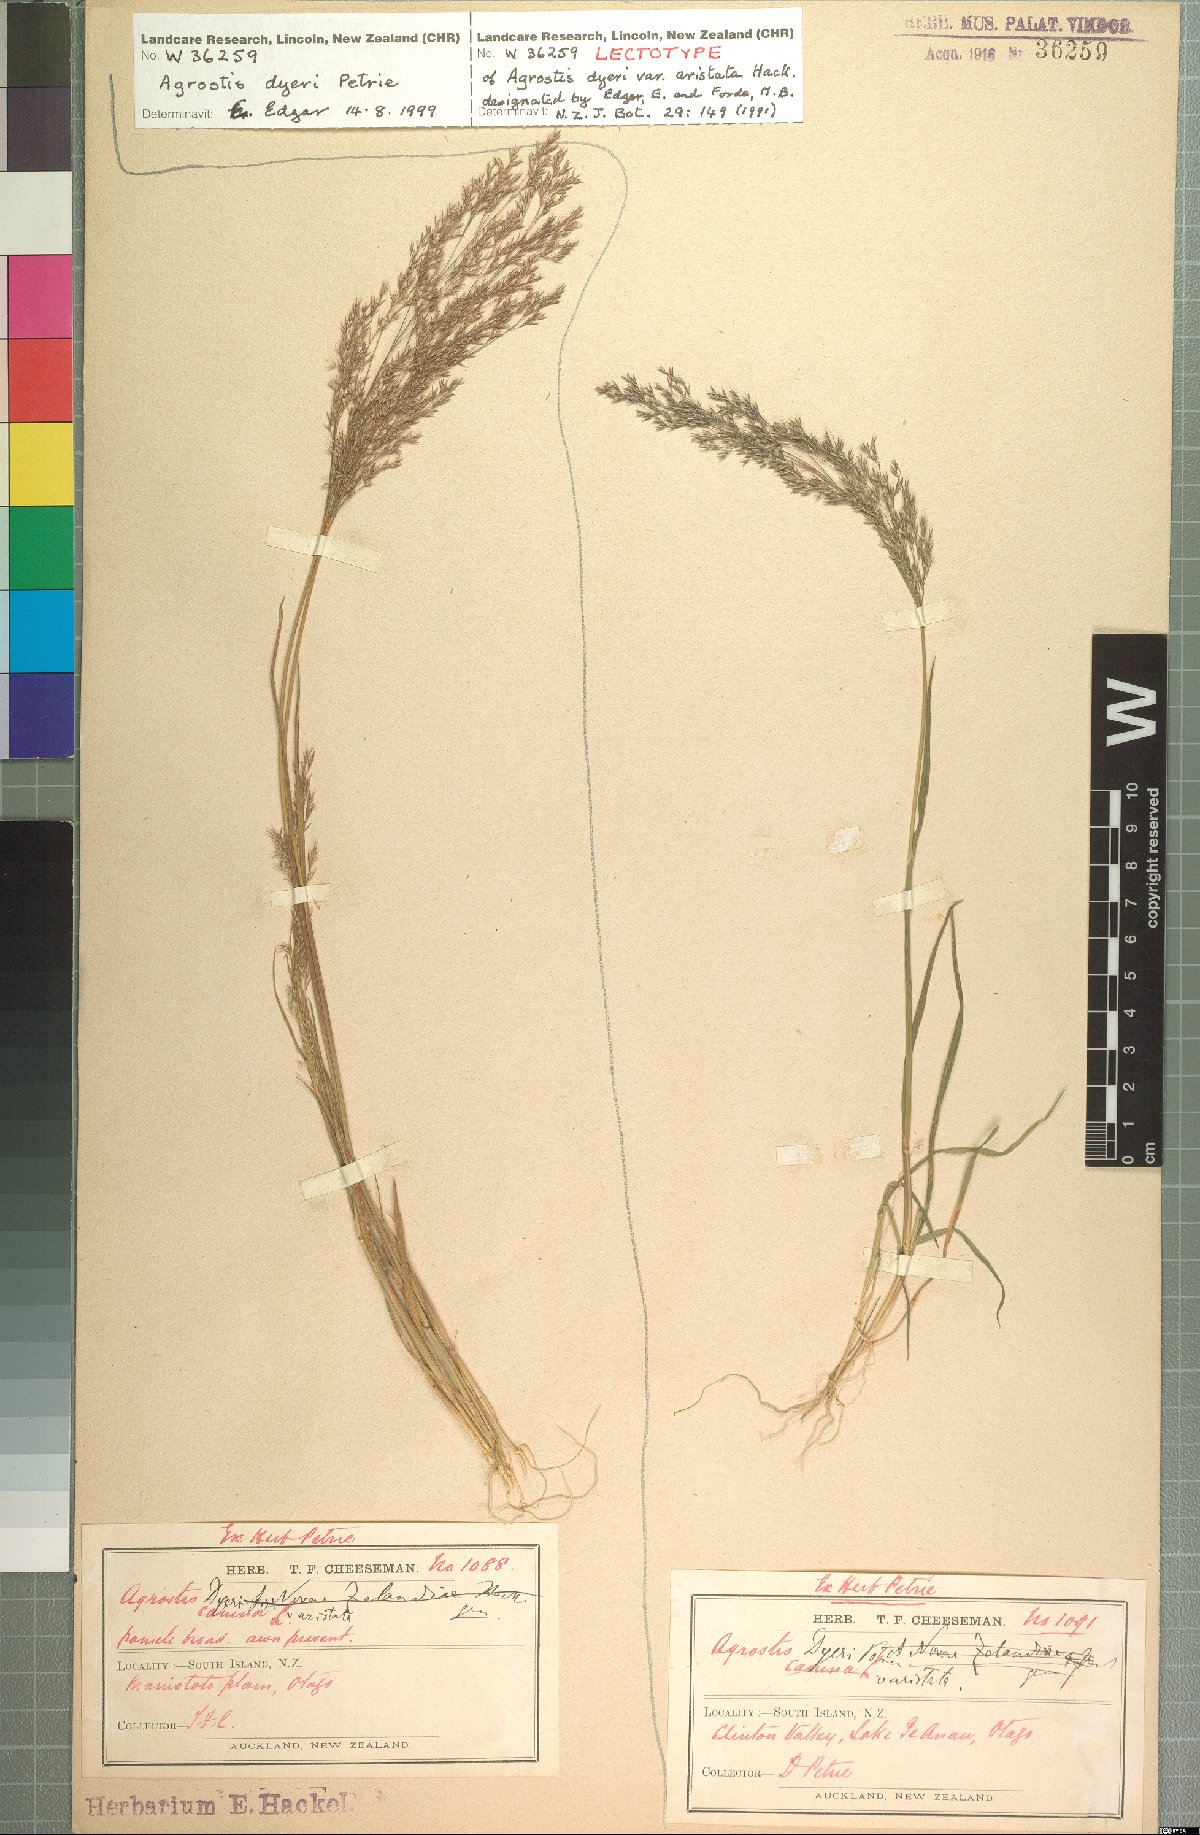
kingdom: Plantae
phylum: Tracheophyta
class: Liliopsida
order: Poales
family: Poaceae
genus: Agrostis
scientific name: Agrostis dyeri
